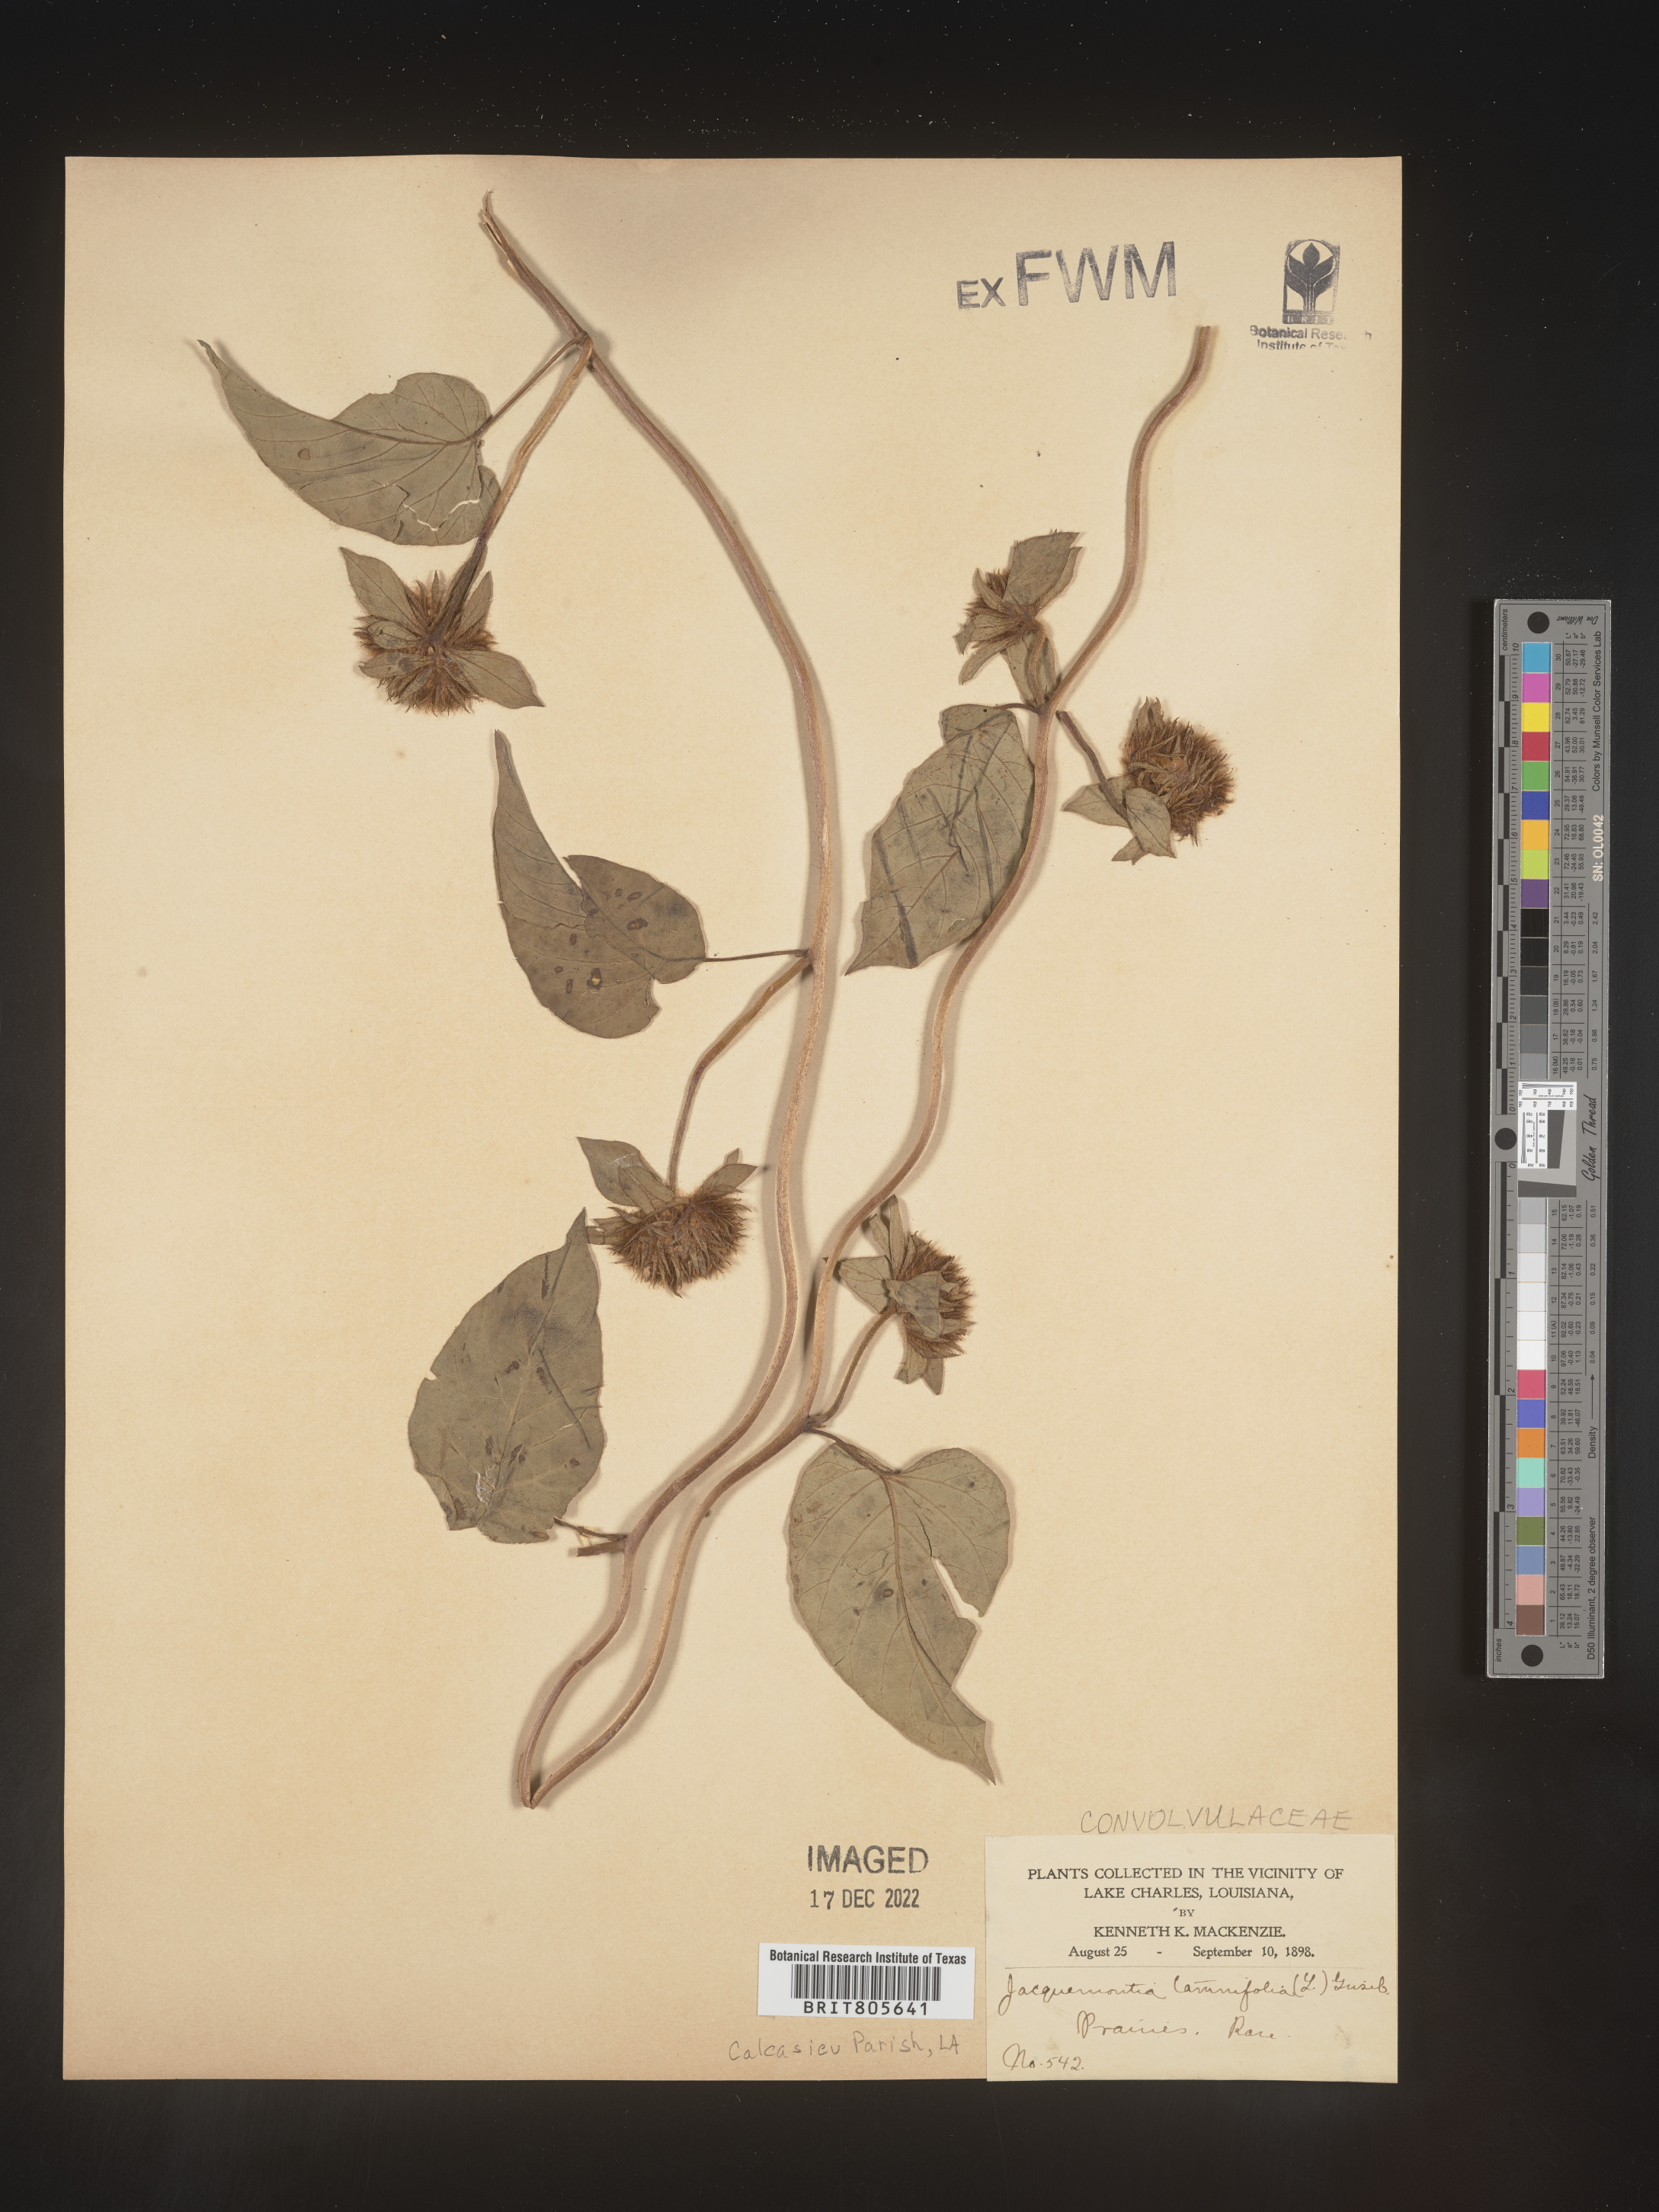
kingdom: Plantae
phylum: Tracheophyta
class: Magnoliopsida
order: Solanales
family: Convolvulaceae
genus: Jacquemontia
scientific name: Jacquemontia tamnifolia
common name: Hairy clustervine
